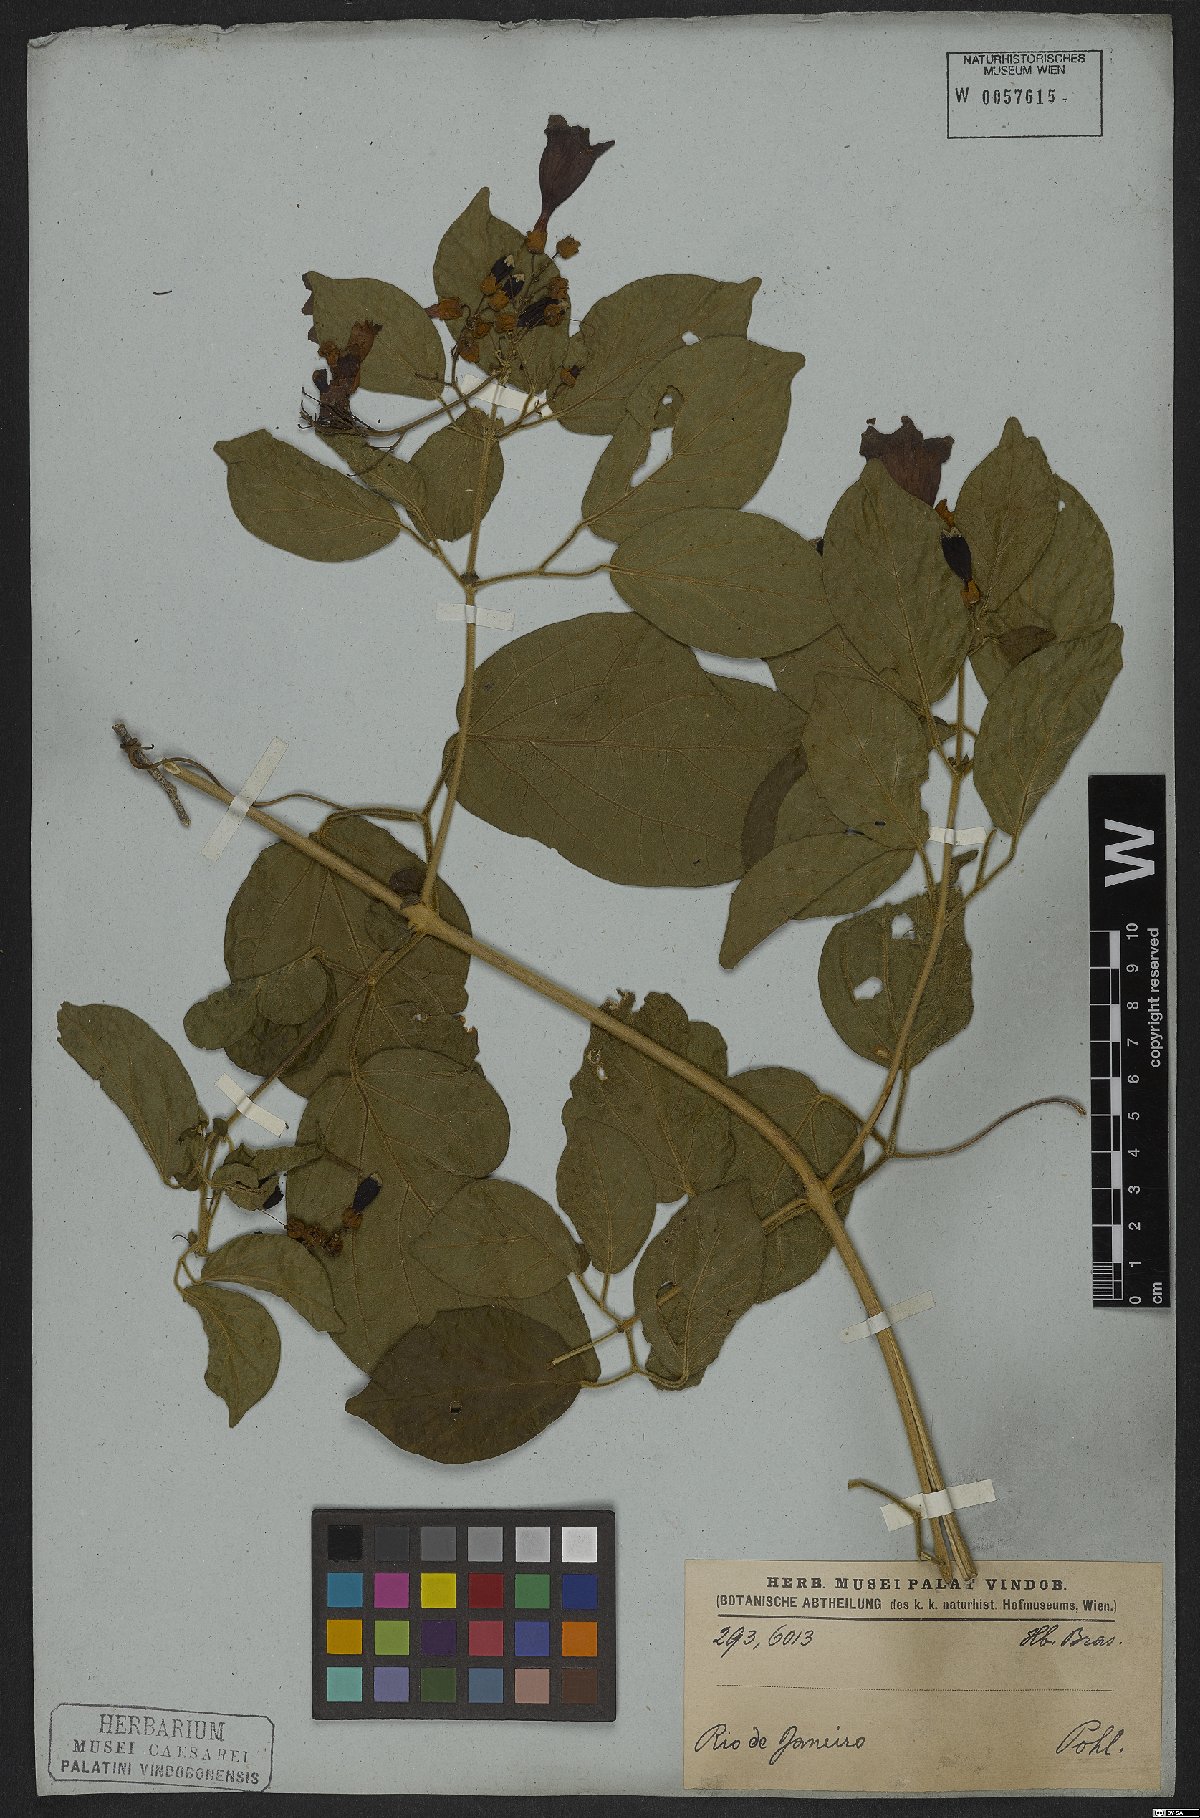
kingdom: Plantae
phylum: Tracheophyta
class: Magnoliopsida
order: Lamiales
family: Bignoniaceae
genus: Fridericia
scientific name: Fridericia leucopogon
